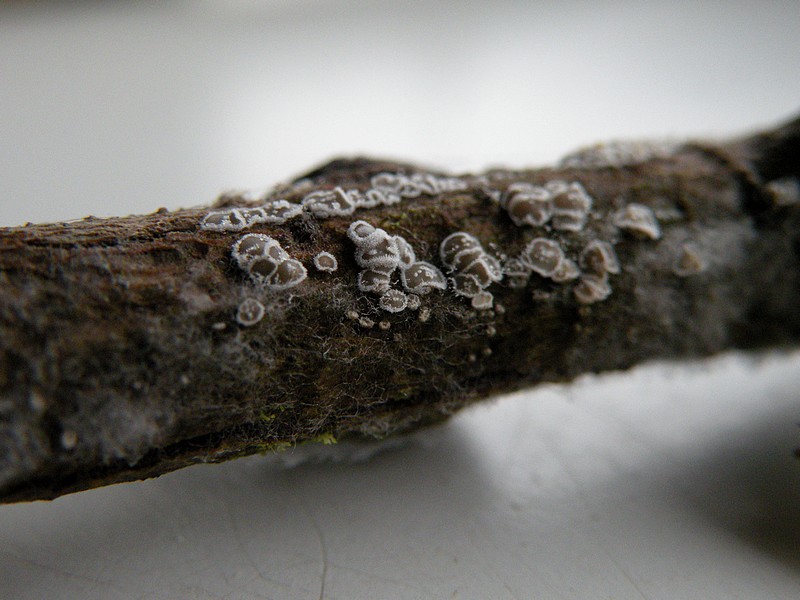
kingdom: Fungi
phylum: Basidiomycota
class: Agaricomycetes
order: Agaricales
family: Niaceae
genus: Lachnella
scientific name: Lachnella alboviolascens
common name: grå frynserede
